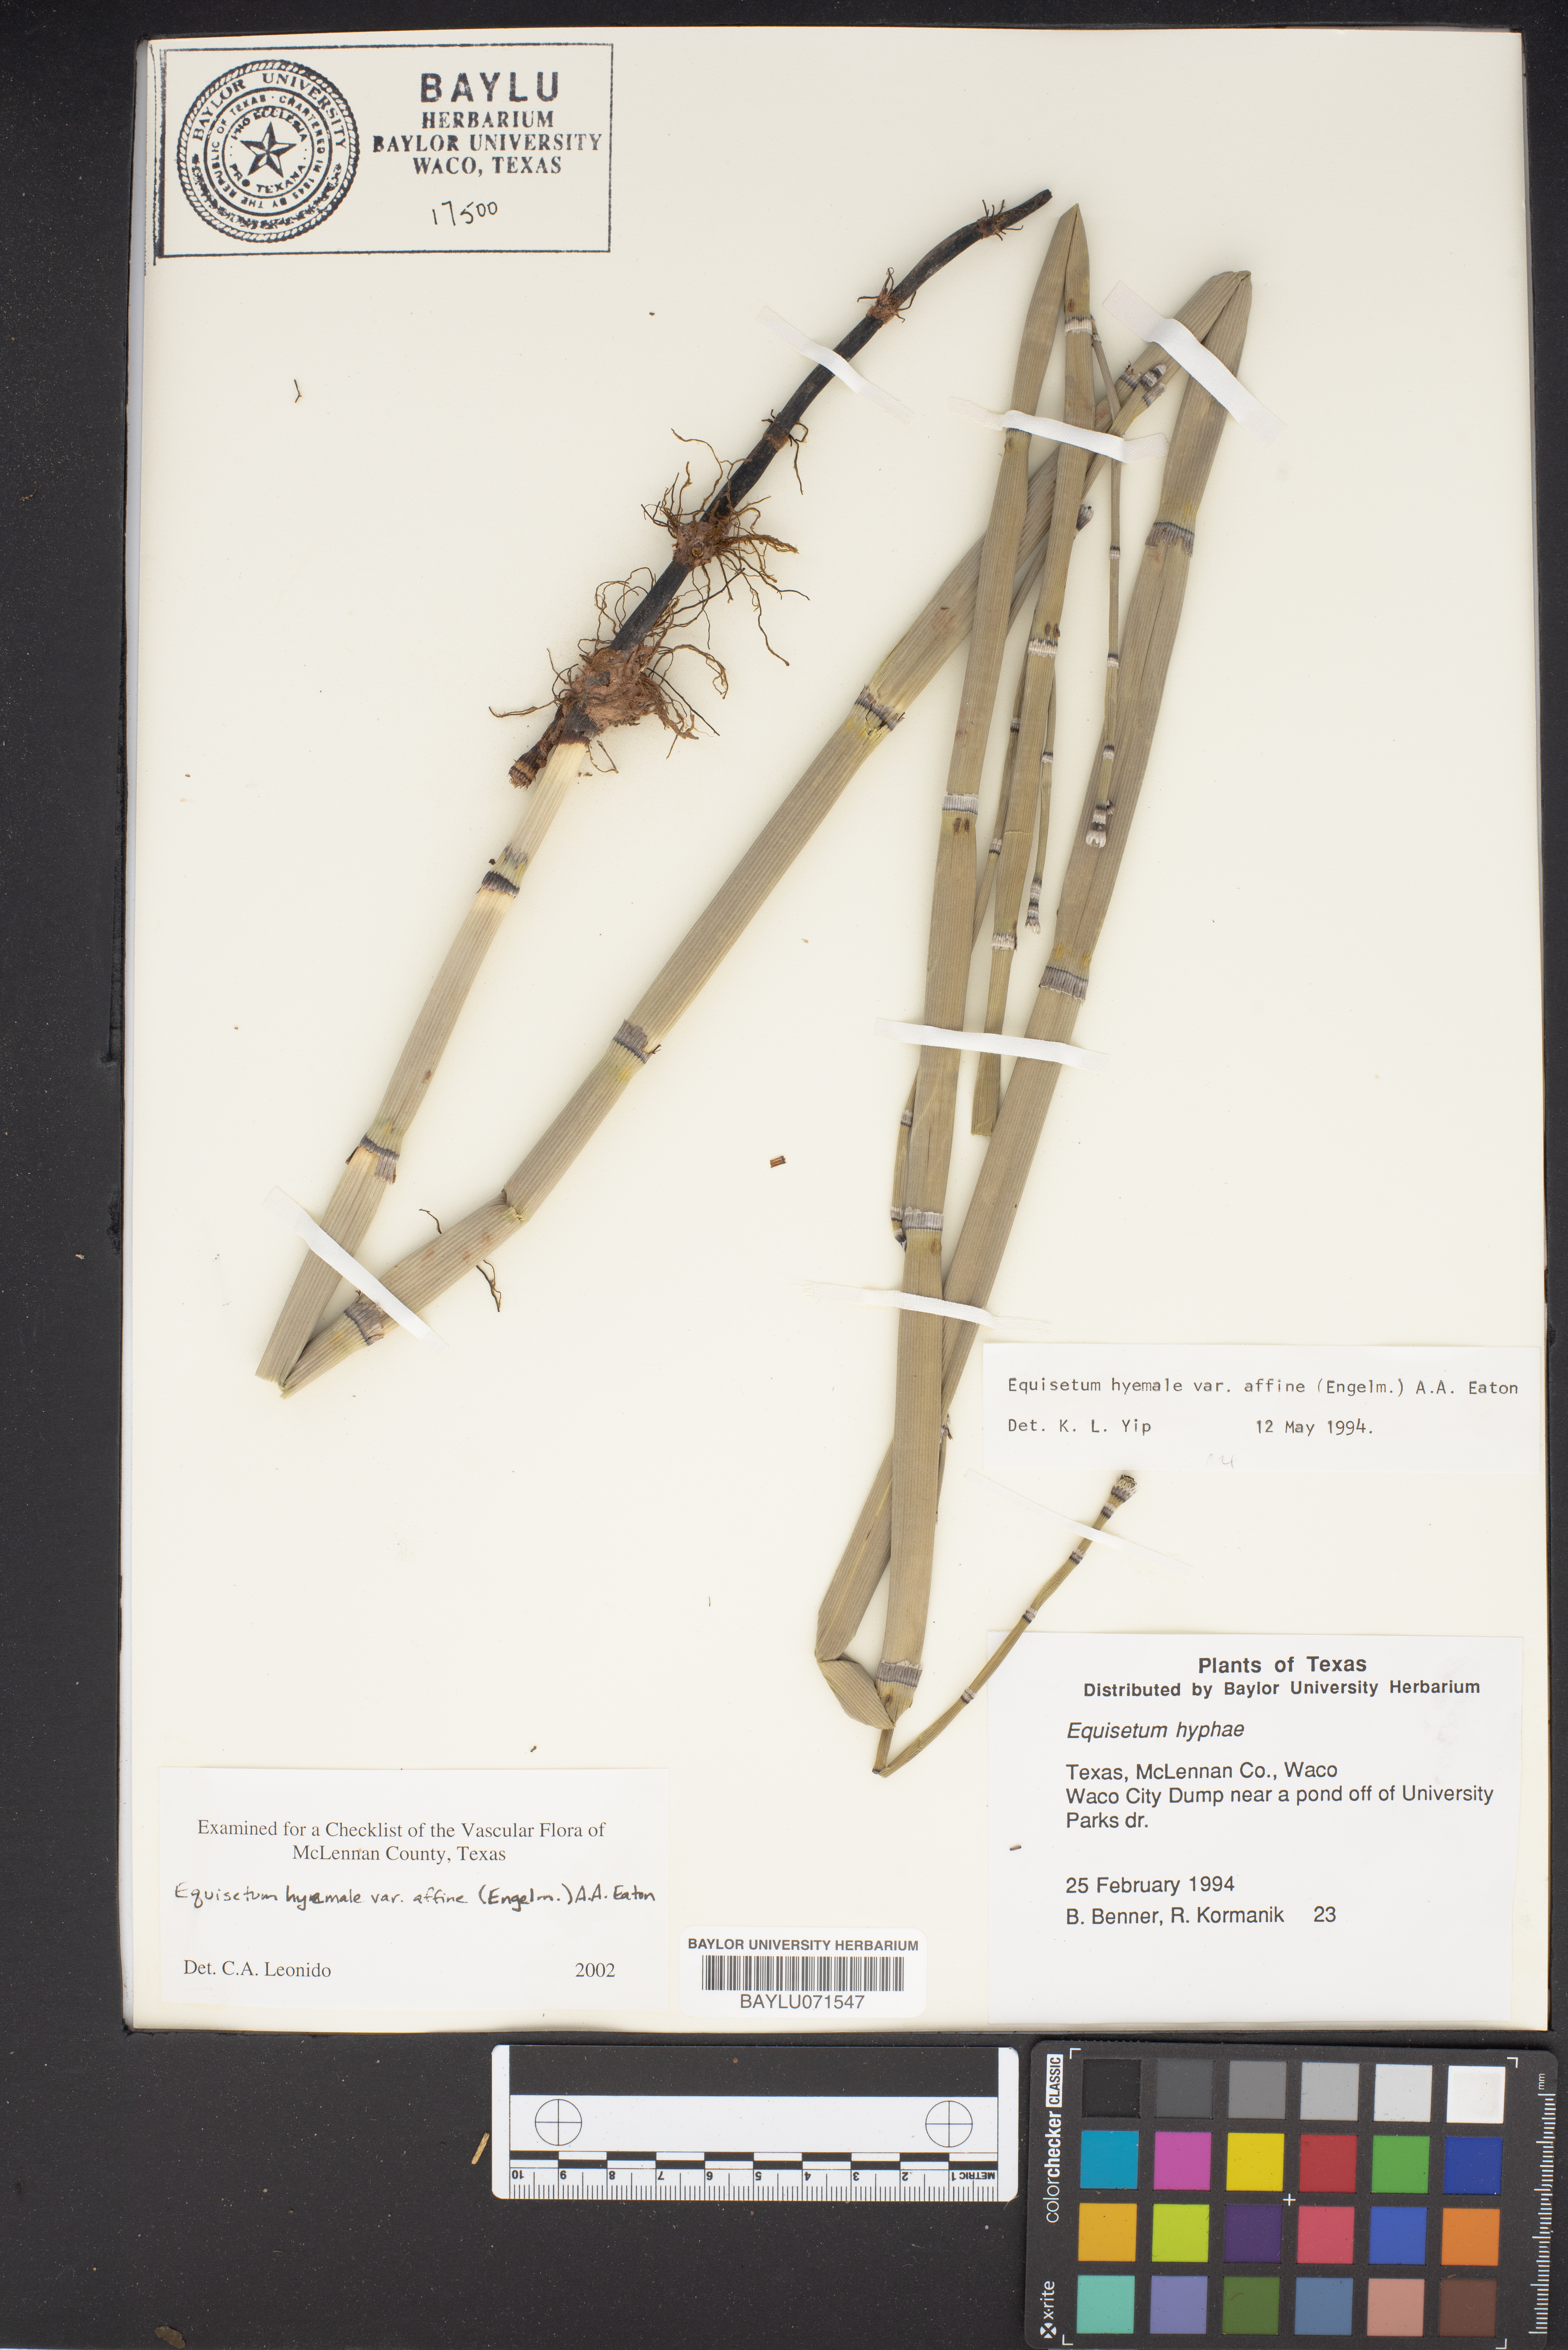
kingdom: Plantae
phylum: Tracheophyta
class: Polypodiopsida
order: Equisetales
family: Equisetaceae
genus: Equisetum
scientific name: Equisetum praealtum
